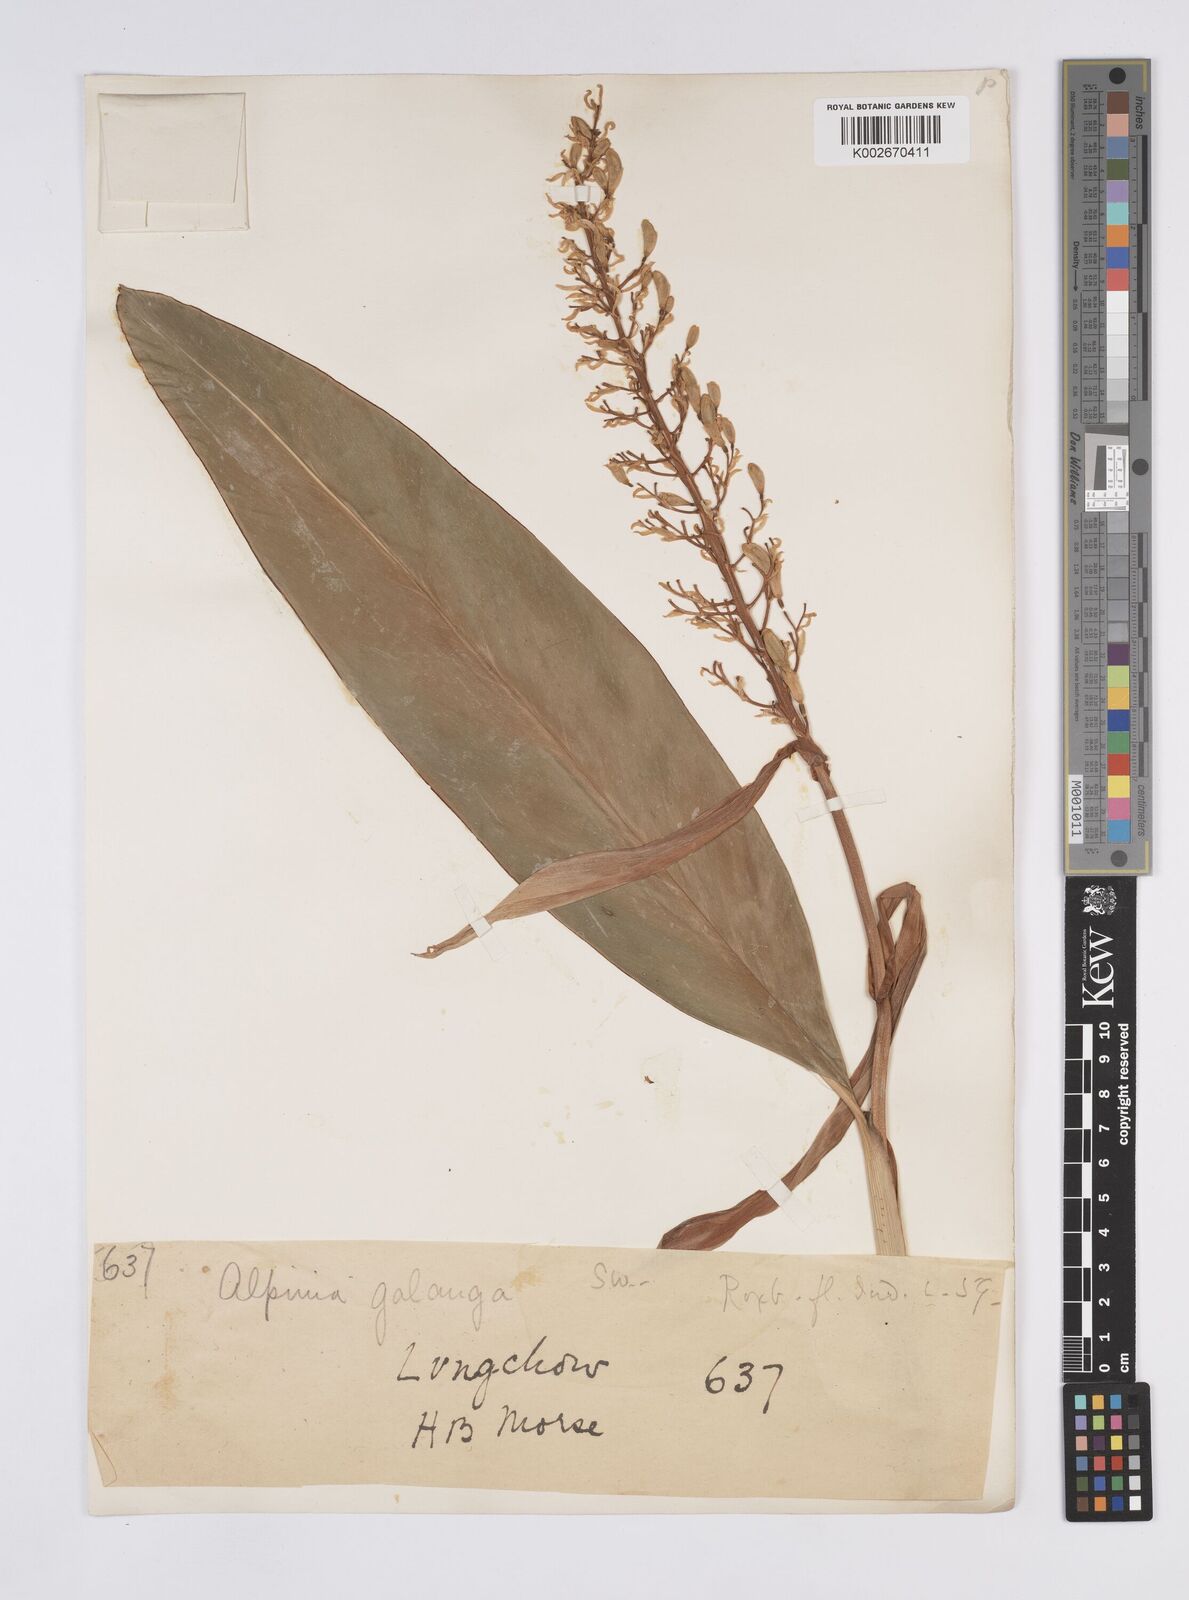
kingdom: Plantae
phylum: Tracheophyta
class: Liliopsida
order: Zingiberales
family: Zingiberaceae
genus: Alpinia
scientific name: Alpinia galanga
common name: Siamese-ginger
